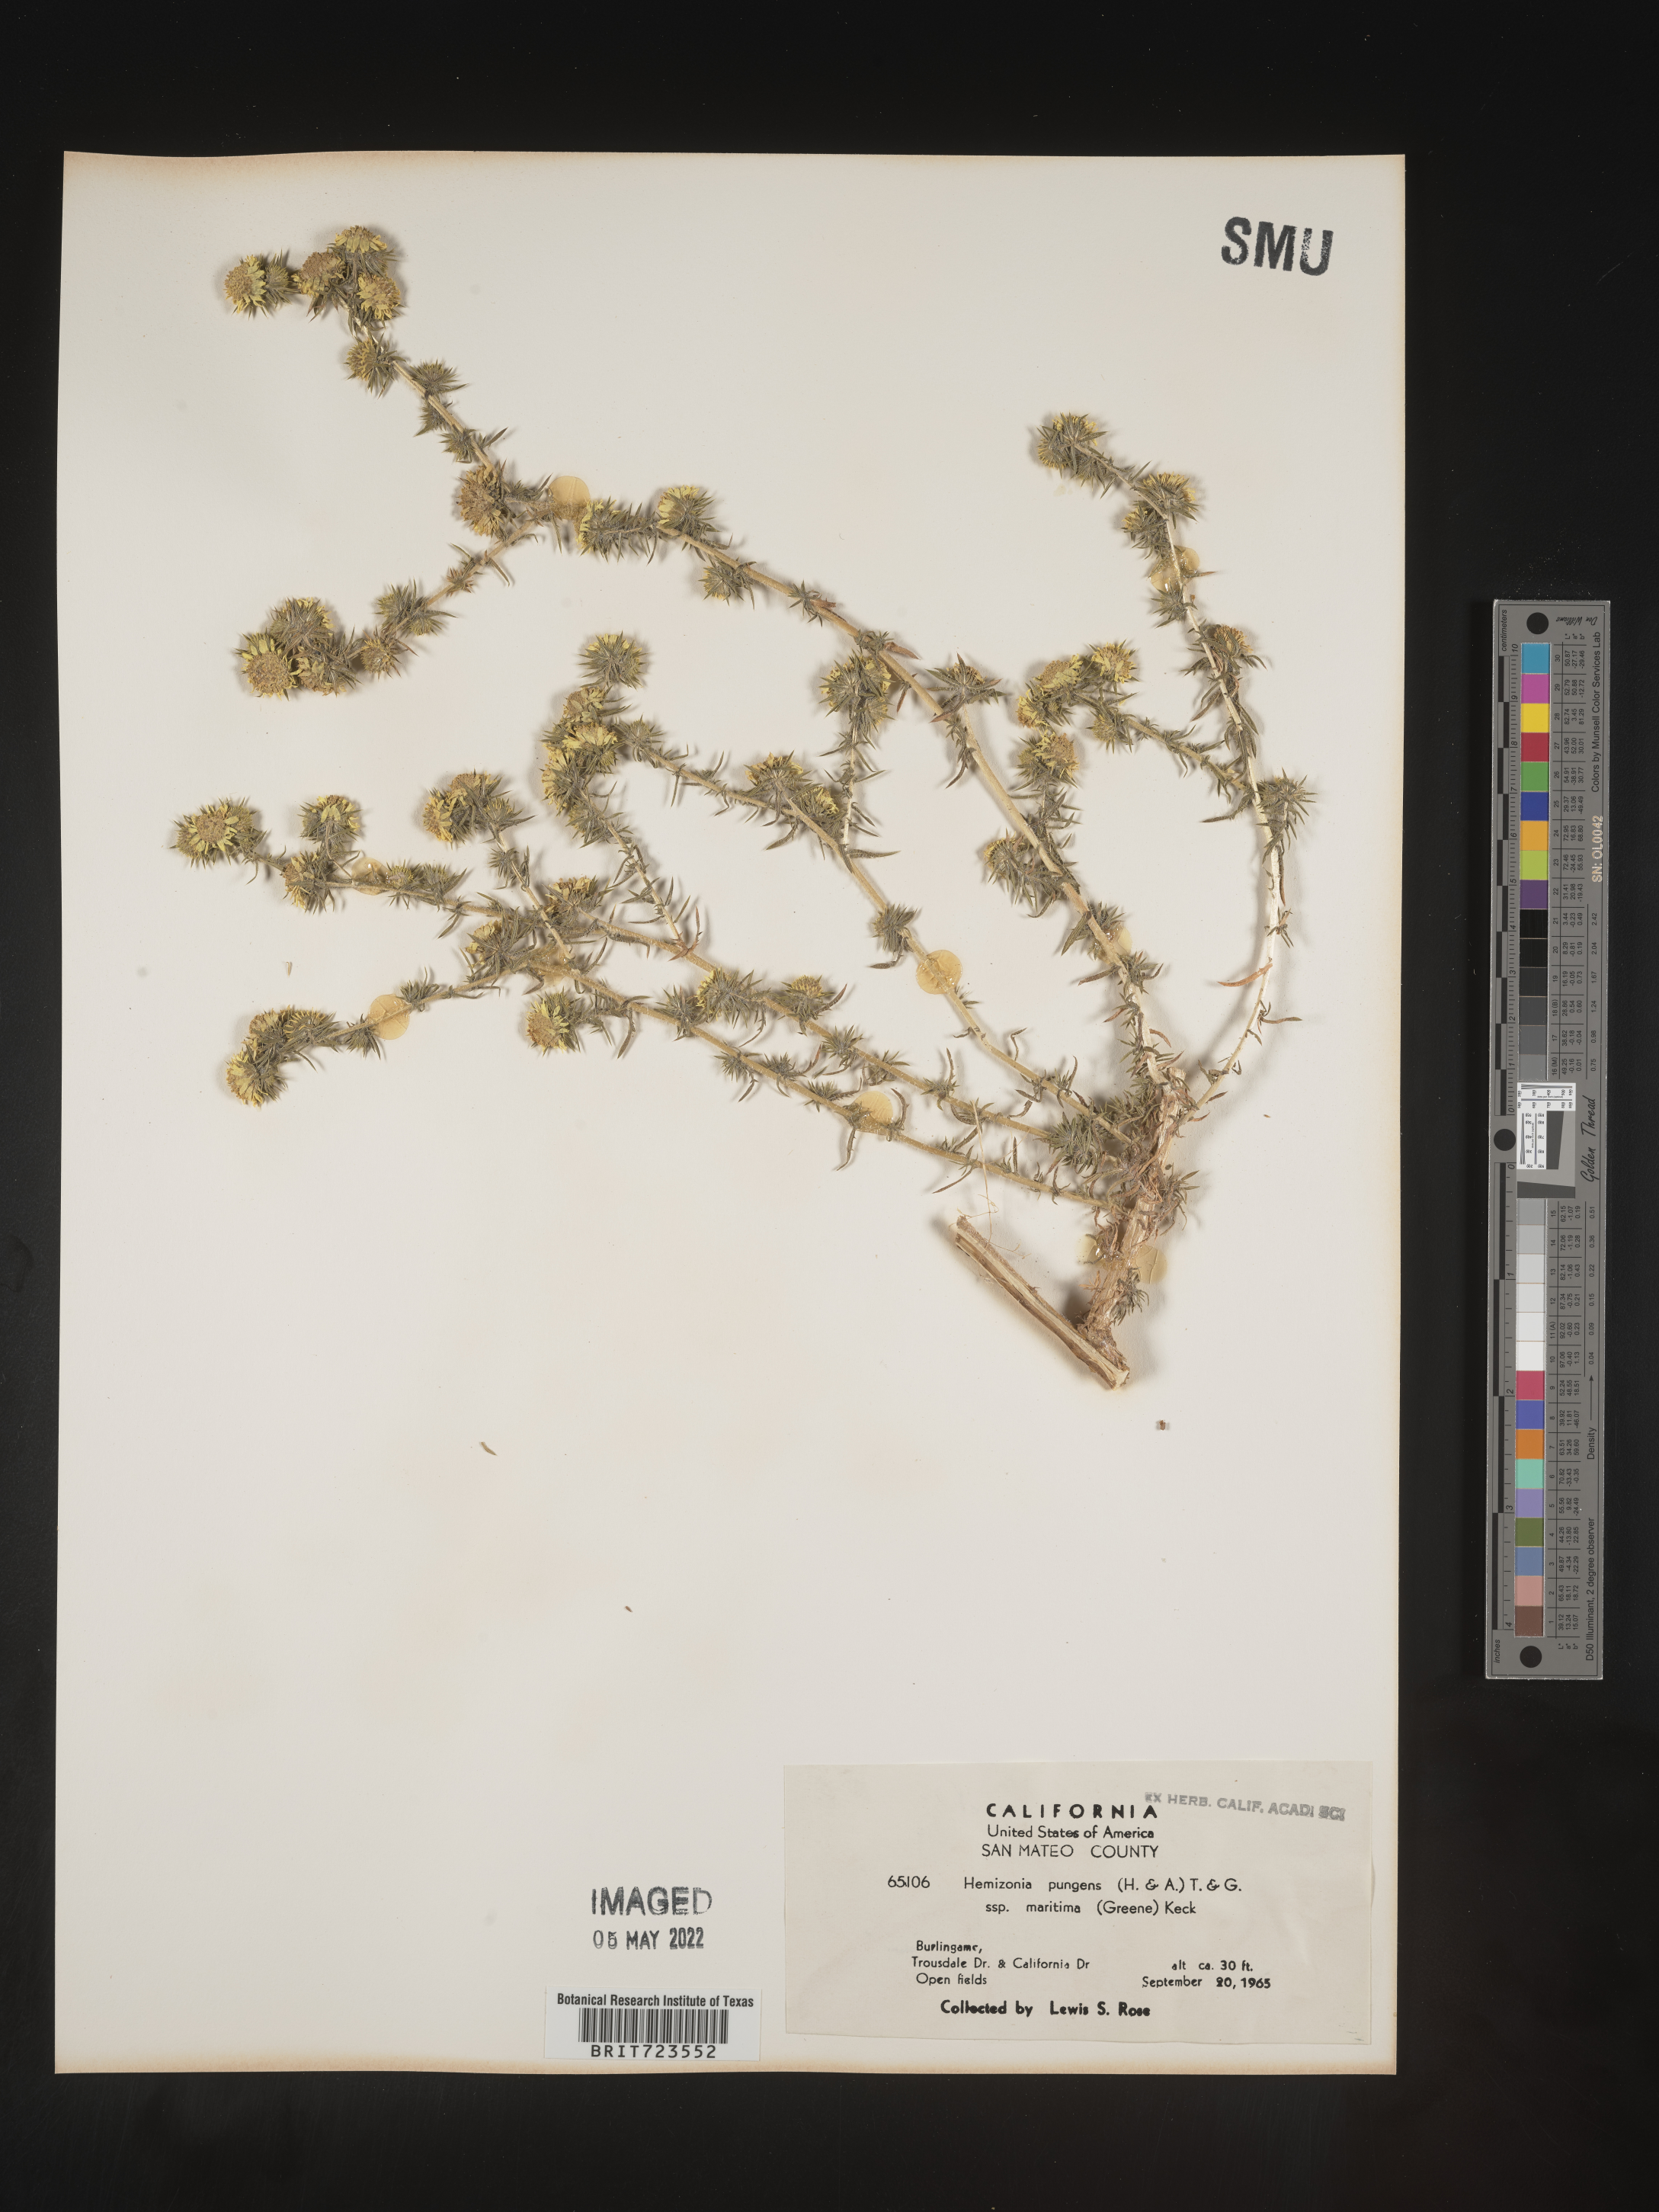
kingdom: Plantae
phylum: Tracheophyta
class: Magnoliopsida
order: Asterales
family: Asteraceae
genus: Hemizonia
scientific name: Hemizonia
